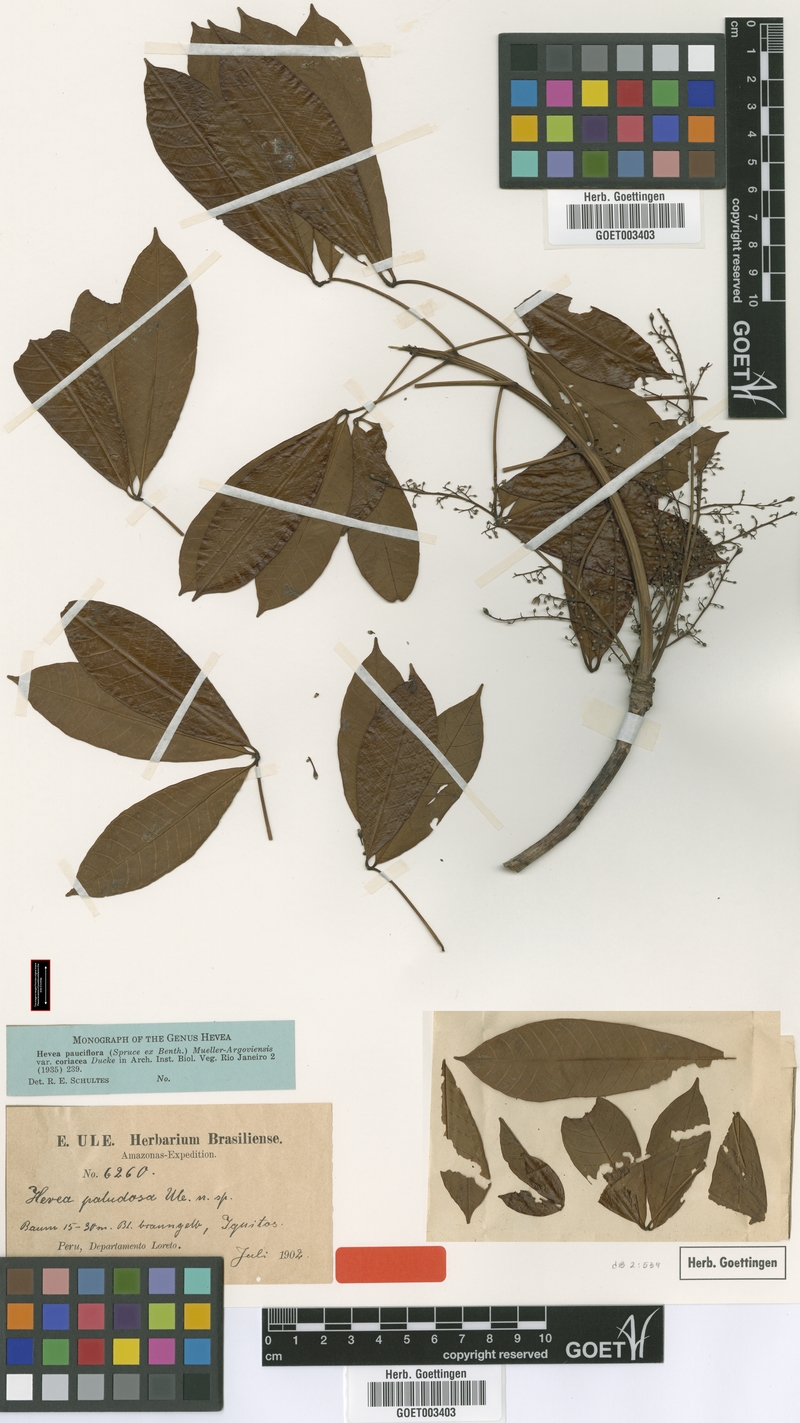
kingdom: Plantae
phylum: Tracheophyta
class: Magnoliopsida
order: Malpighiales
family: Euphorbiaceae
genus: Hevea
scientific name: Hevea pauciflora
